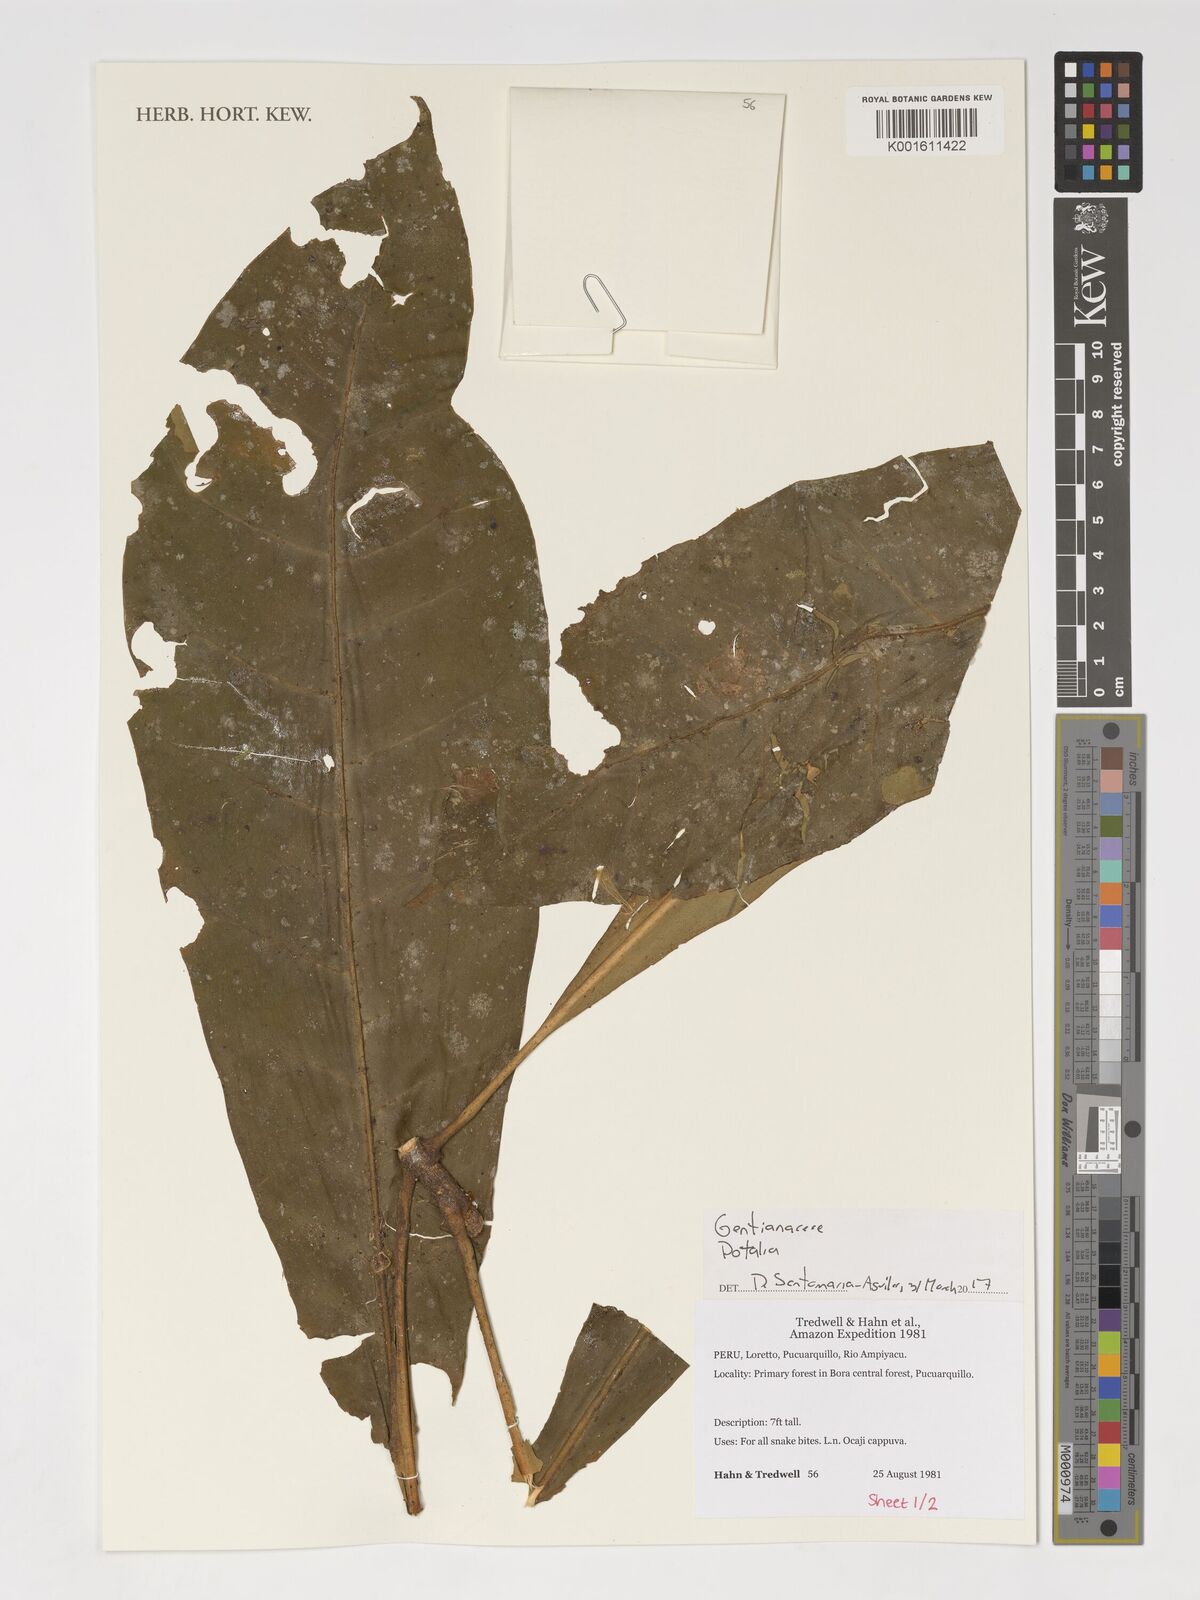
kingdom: Plantae
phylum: Tracheophyta
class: Magnoliopsida
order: Gentianales
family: Gentianaceae
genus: Potalia
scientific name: Potalia
